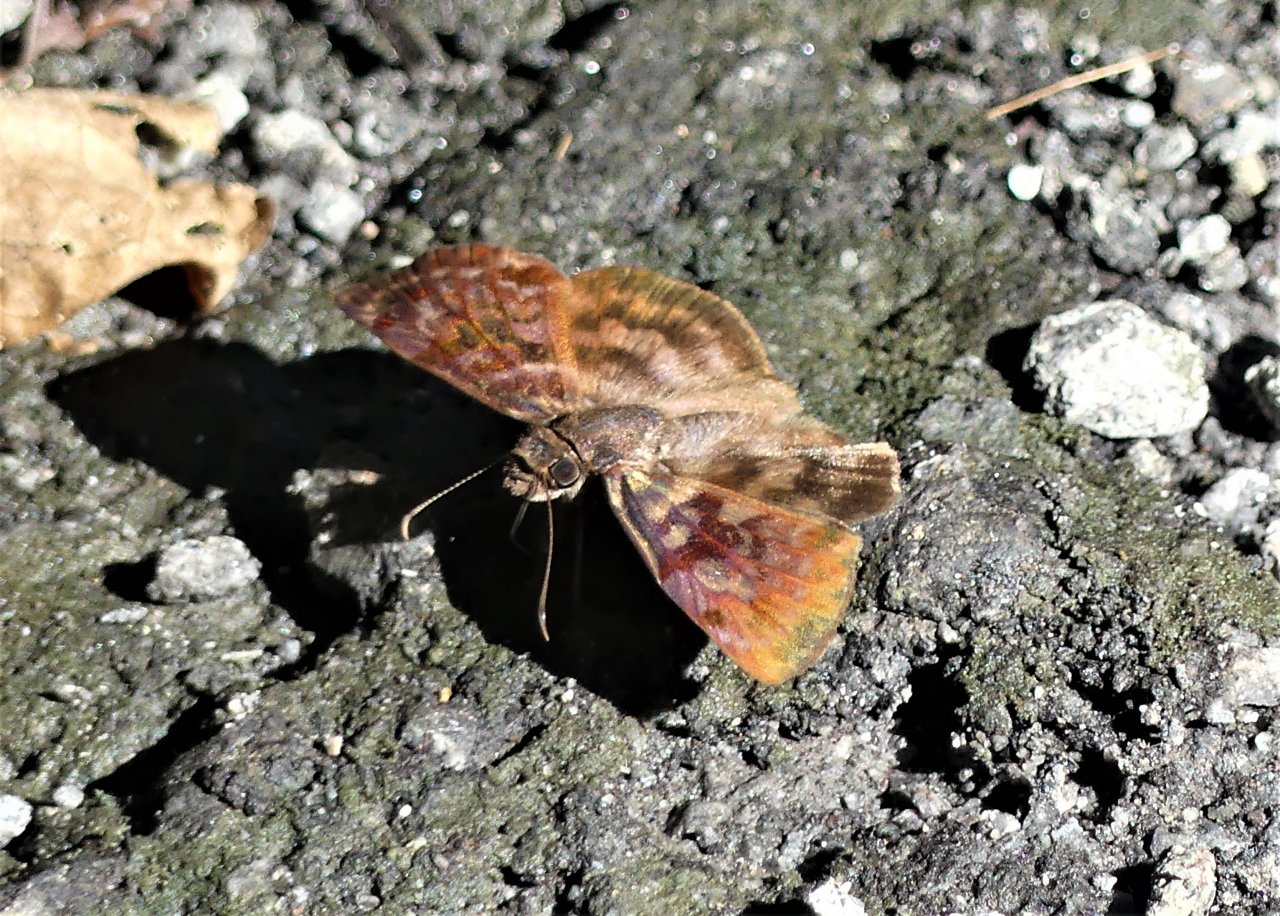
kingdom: Animalia
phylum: Arthropoda
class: Insecta
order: Lepidoptera
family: Hesperiidae
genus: Anastrus
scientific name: Anastrus sempiternus
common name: Common Anastrus
